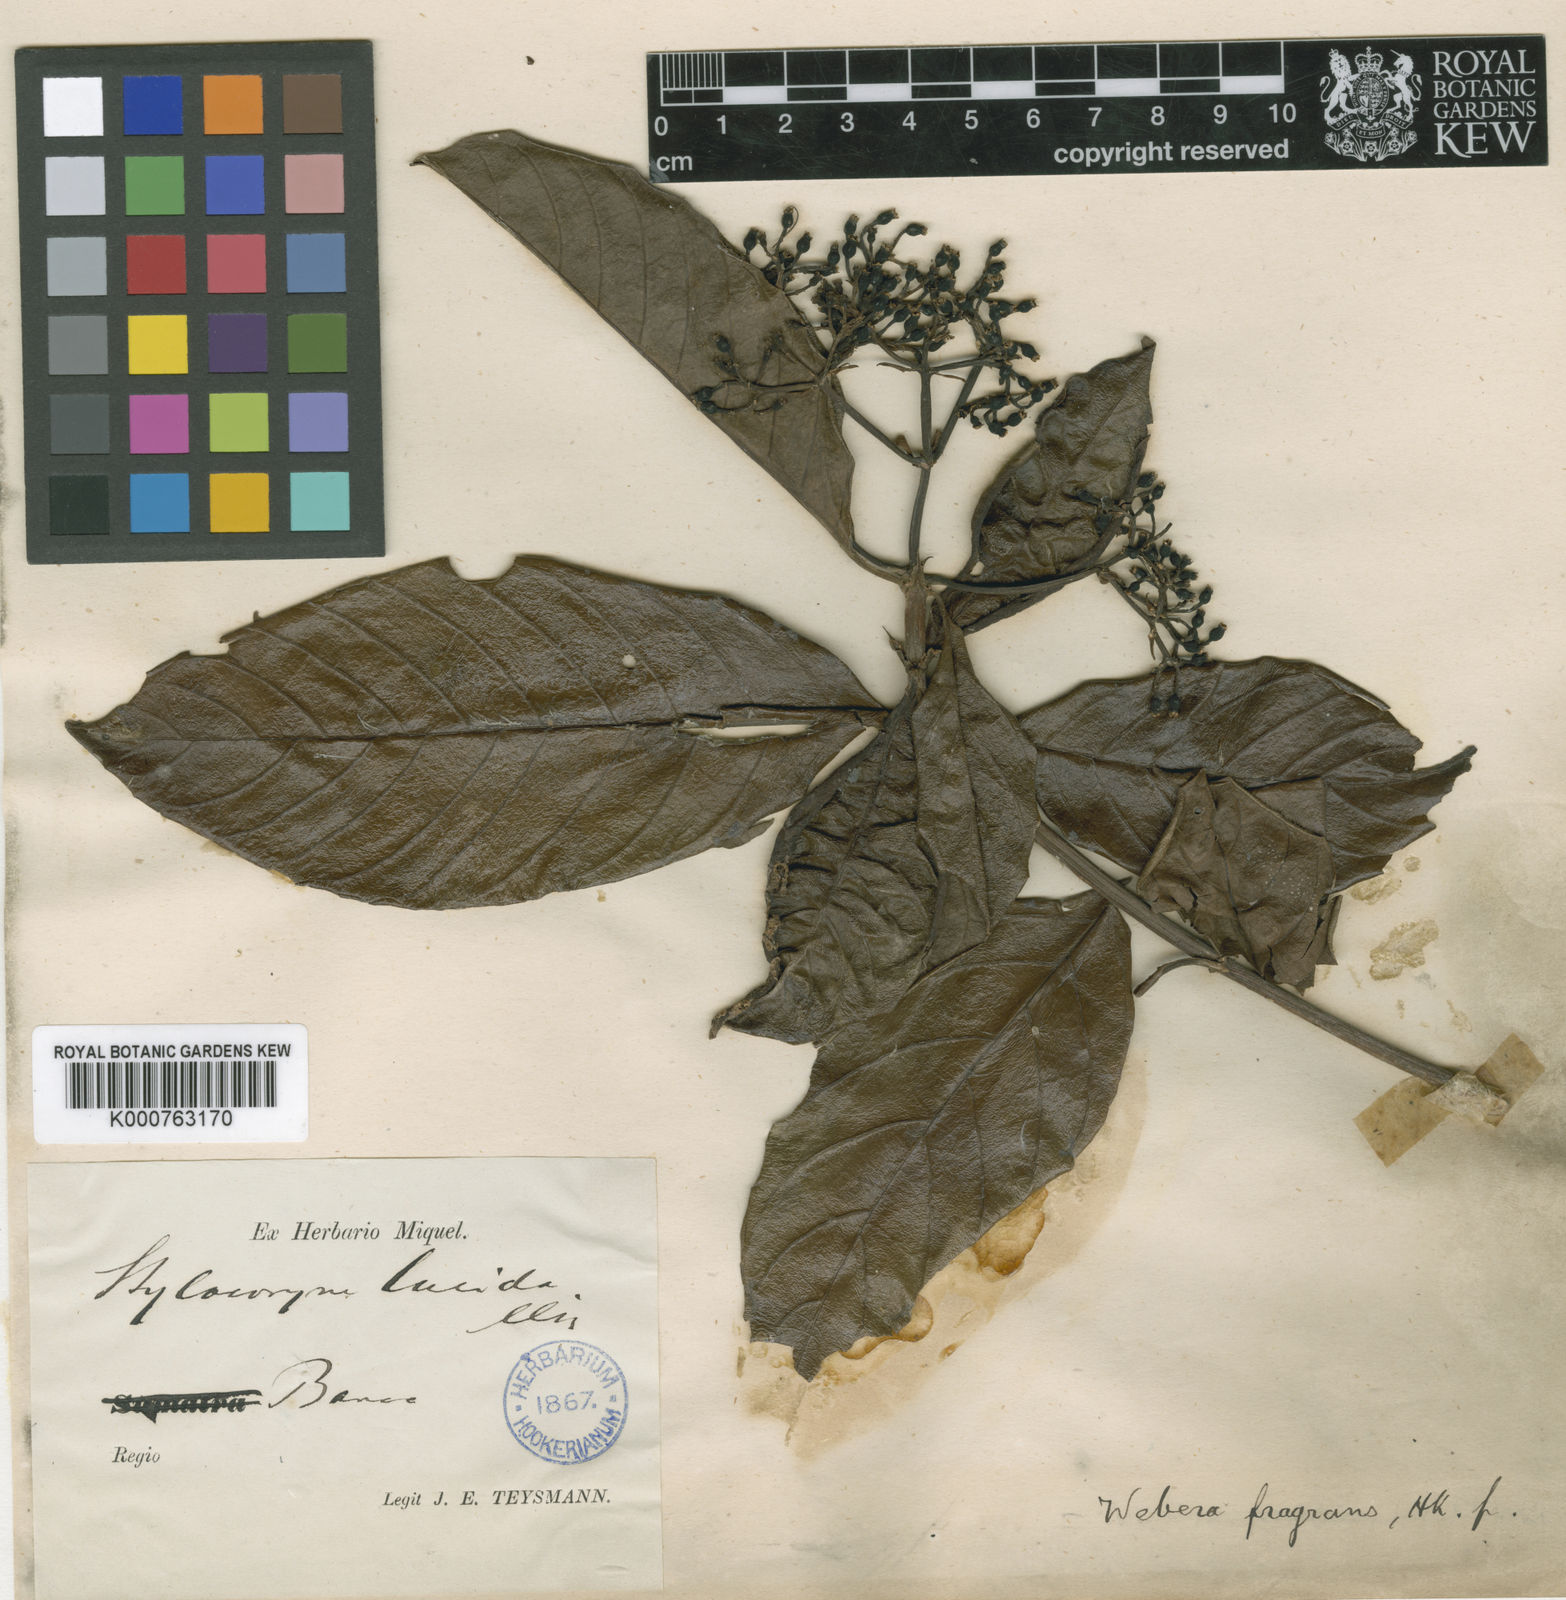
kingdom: Plantae
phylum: Tracheophyta
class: Magnoliopsida
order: Gentianales
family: Rubiaceae
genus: Tarenna
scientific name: Tarenna sumatrensis
